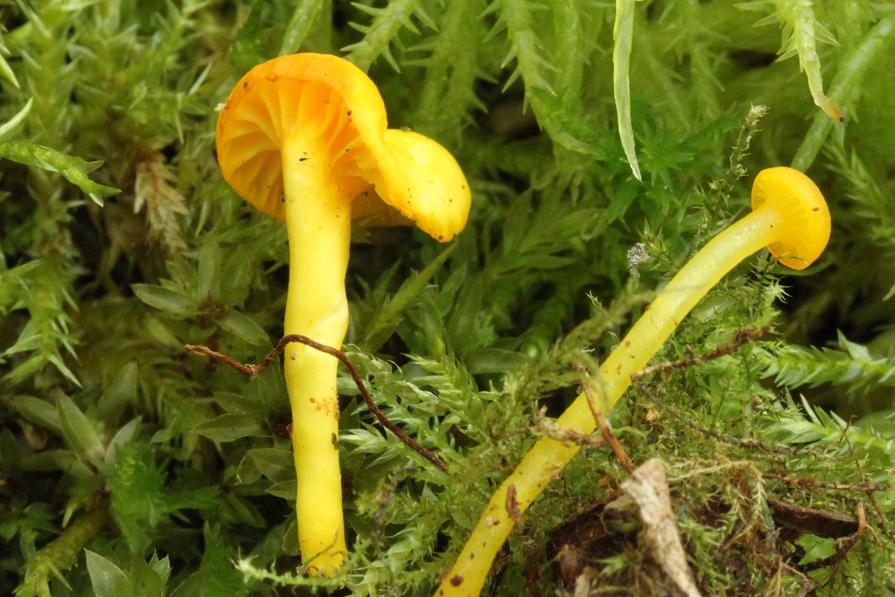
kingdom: Fungi
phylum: Basidiomycota
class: Agaricomycetes
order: Agaricales
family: Hygrophoraceae
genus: Gloioxanthomyces
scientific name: Gloioxanthomyces vitellinus
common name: kromgul vokshat
